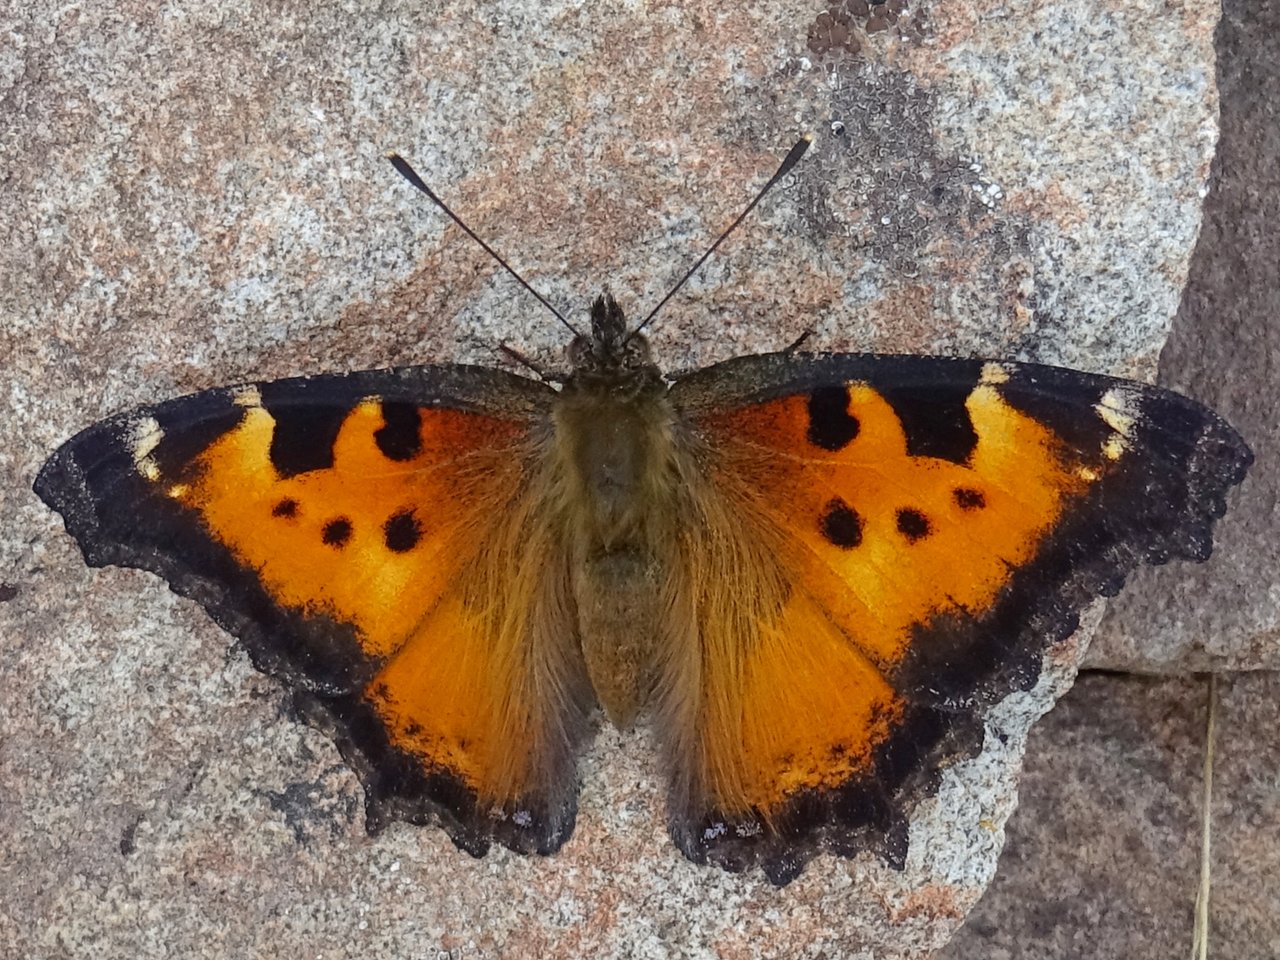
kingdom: Animalia
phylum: Arthropoda
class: Insecta
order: Lepidoptera
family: Nymphalidae
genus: Nymphalis
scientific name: Nymphalis californica
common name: California Tortoiseshell
